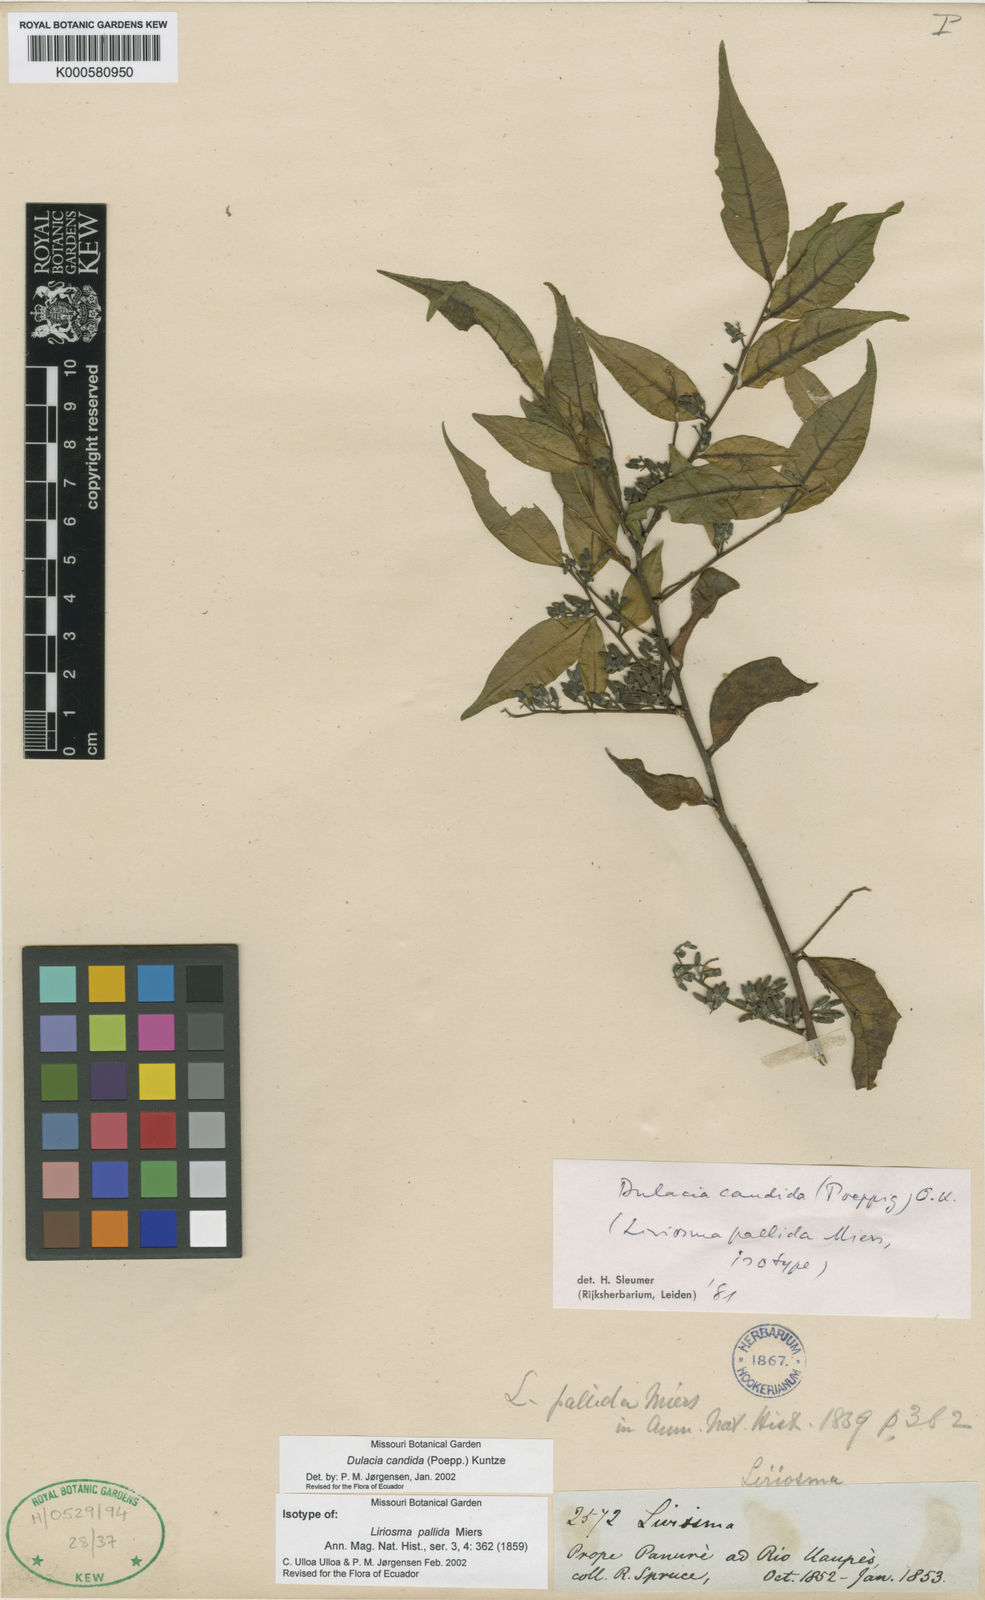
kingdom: Plantae
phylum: Tracheophyta
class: Magnoliopsida
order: Santalales
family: Olacaceae
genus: Dulacia
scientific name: Dulacia candida
